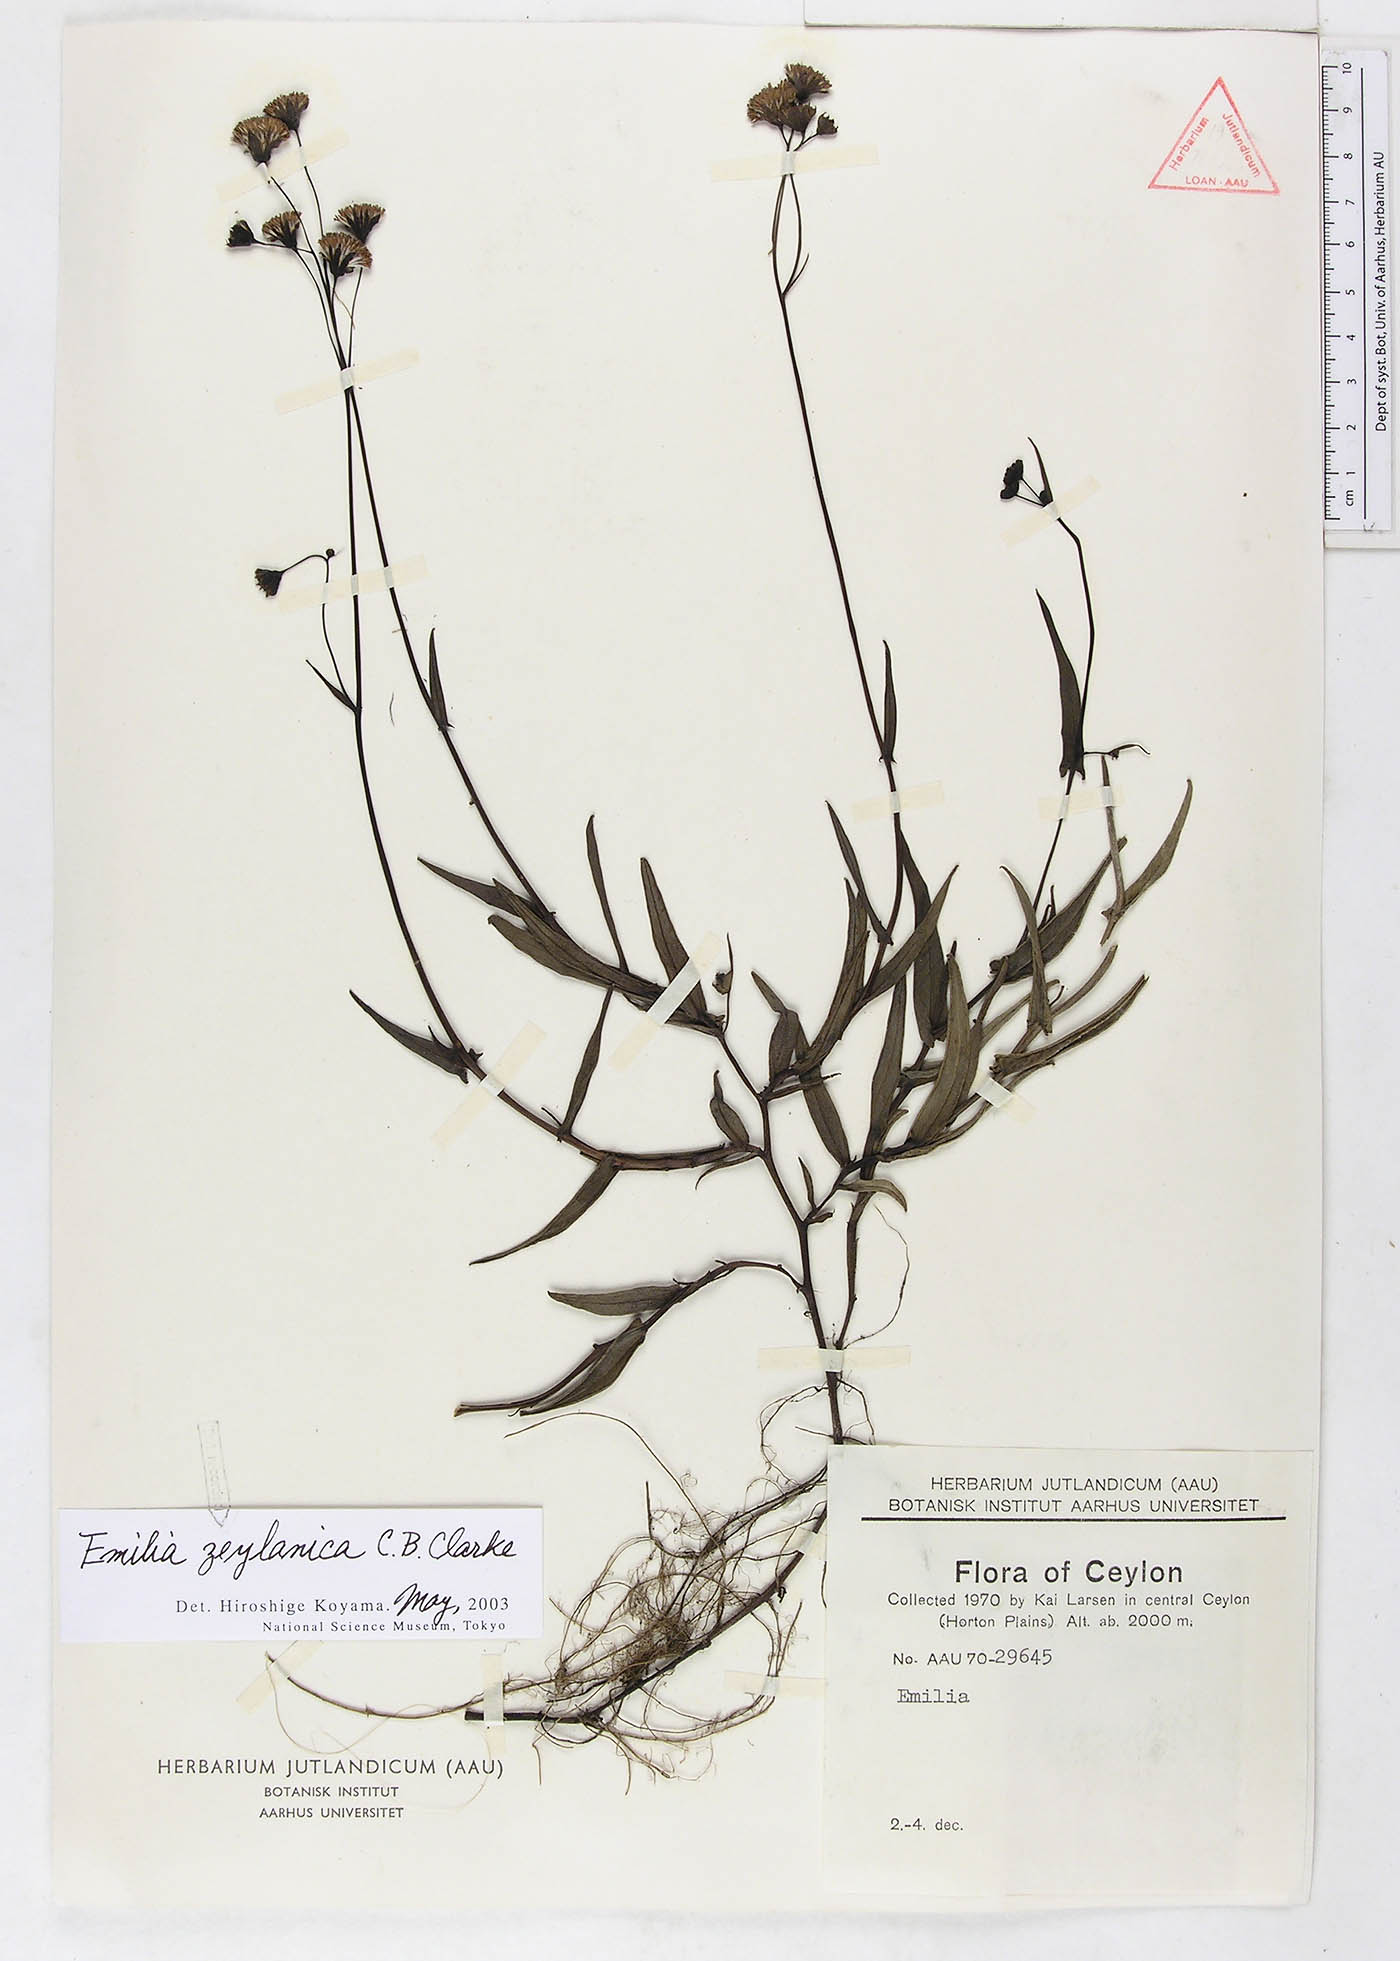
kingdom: Plantae
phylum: Tracheophyta
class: Magnoliopsida
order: Asterales
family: Asteraceae
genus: Emilia
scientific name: Emilia zeylanica
